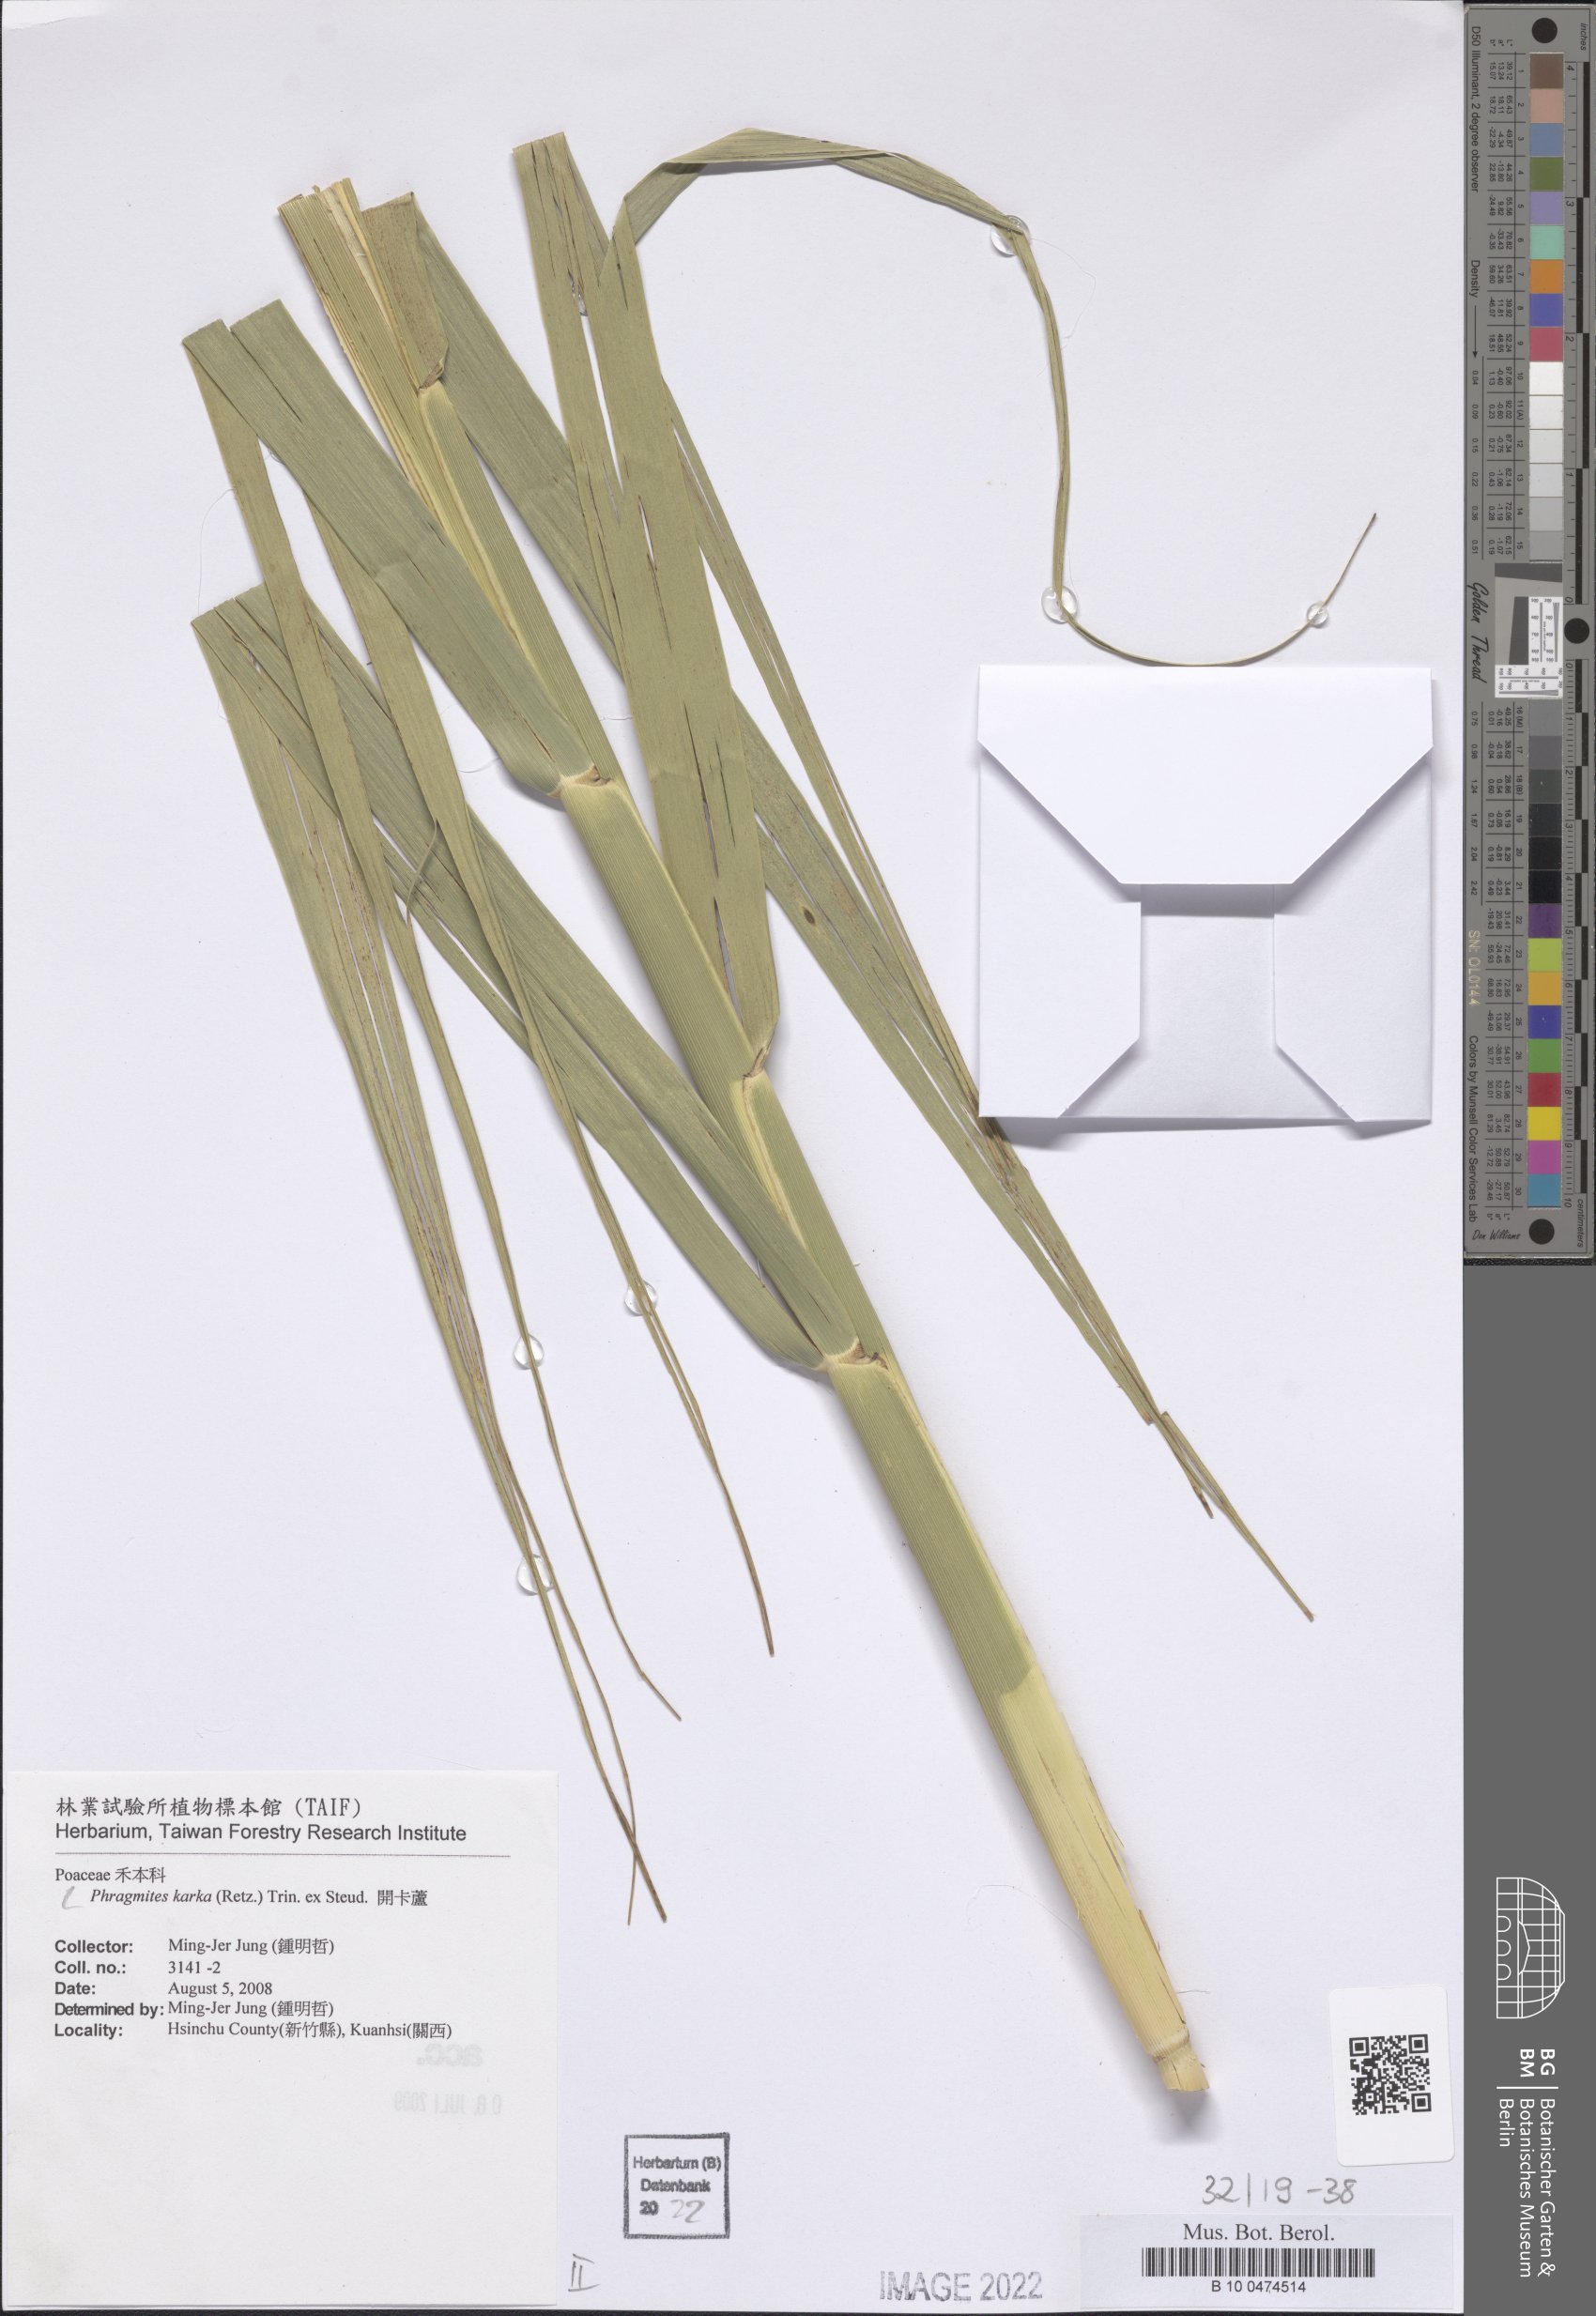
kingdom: Plantae
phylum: Tracheophyta
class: Liliopsida
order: Poales
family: Poaceae
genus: Phragmites
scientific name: Phragmites karka
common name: Tropical reed
